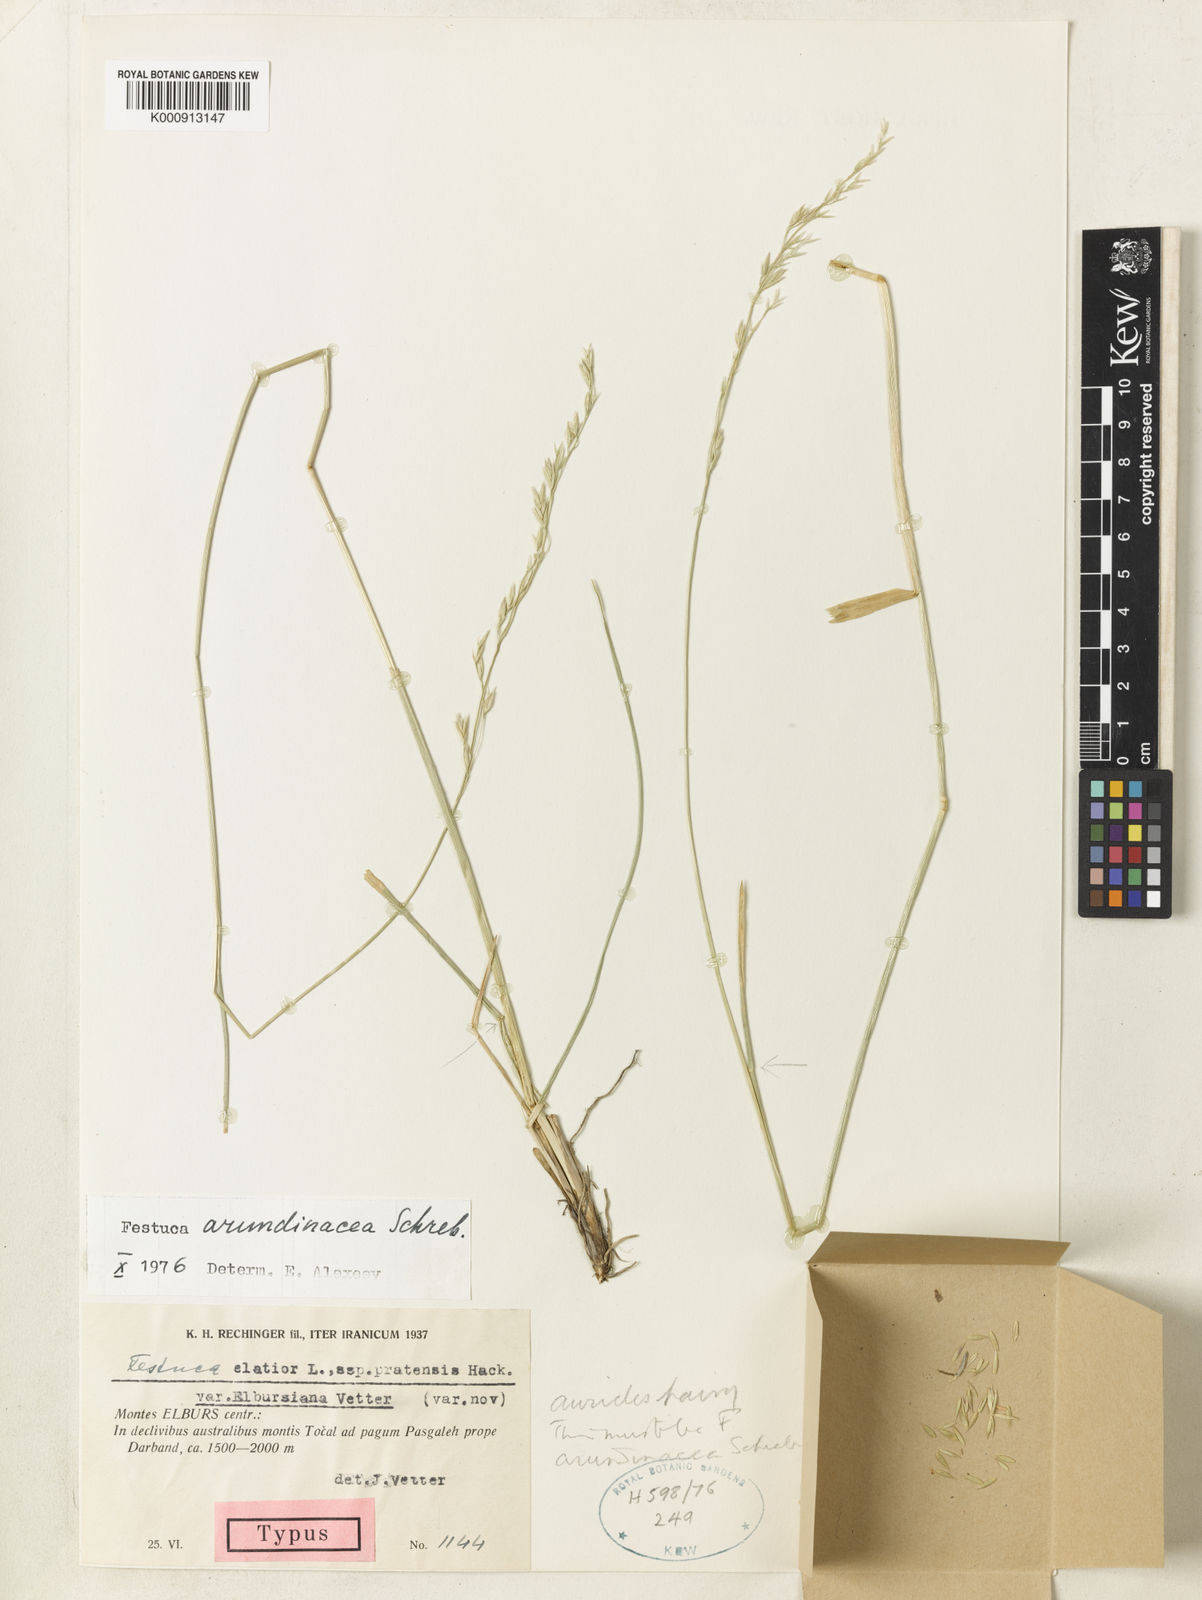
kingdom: Plantae
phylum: Tracheophyta
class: Liliopsida
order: Poales
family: Poaceae
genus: Lolium
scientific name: Lolium arundinaceum
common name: Reed fescue
